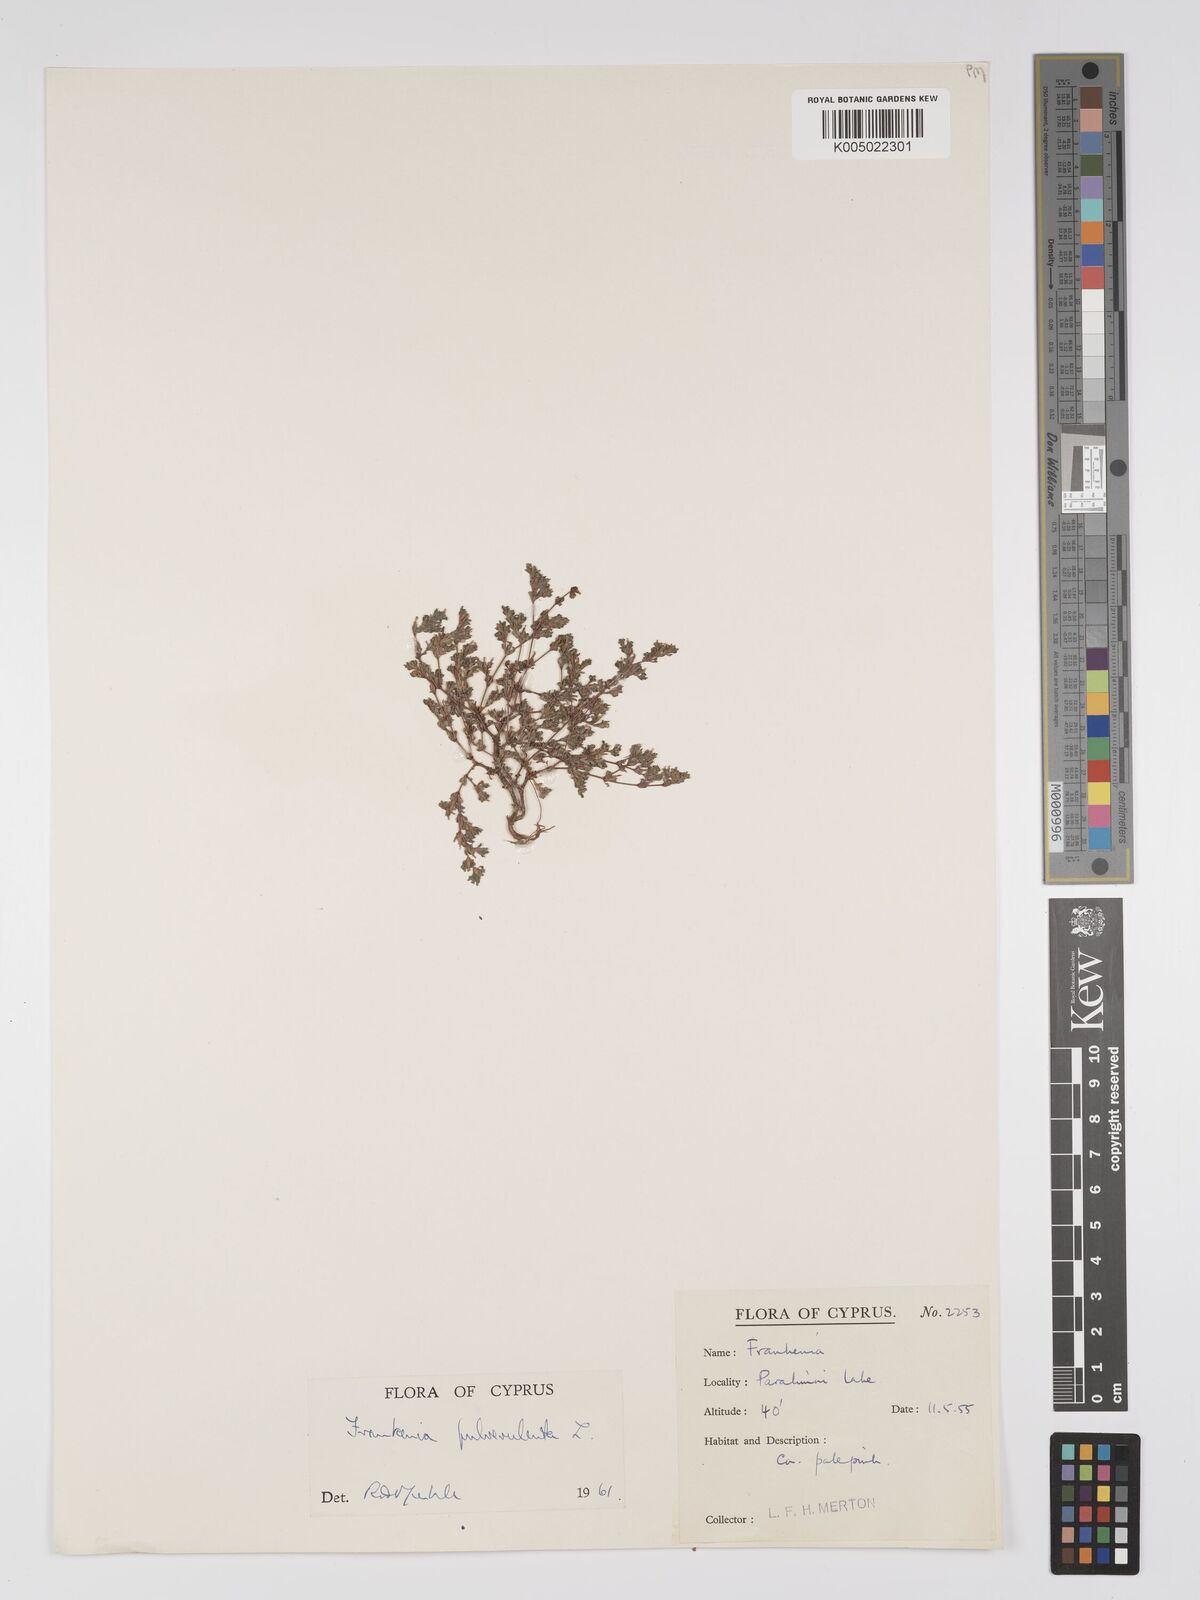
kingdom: Plantae
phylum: Tracheophyta
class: Magnoliopsida
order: Caryophyllales
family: Frankeniaceae
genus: Frankenia
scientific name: Frankenia pulverulenta
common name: European seaheath
